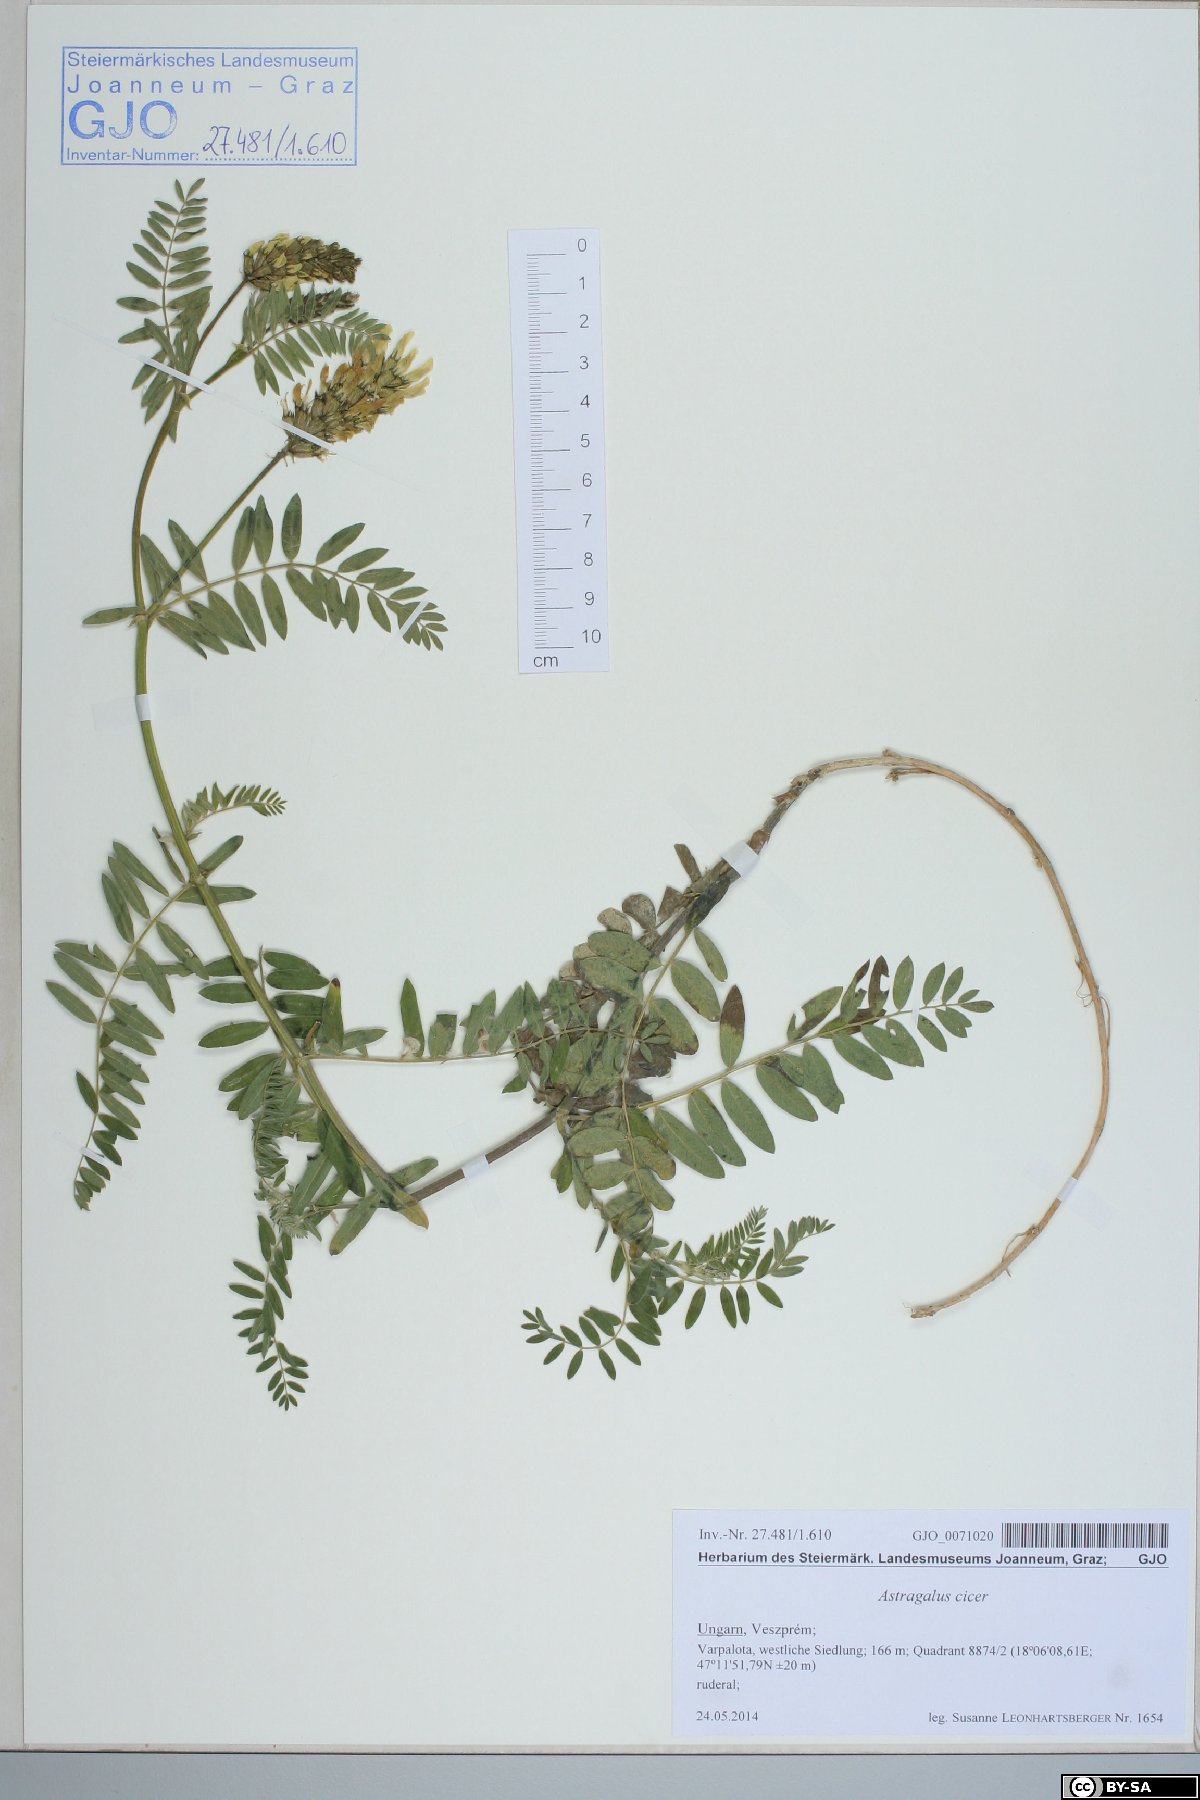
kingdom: Plantae
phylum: Tracheophyta
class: Magnoliopsida
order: Fabales
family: Fabaceae
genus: Astragalus
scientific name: Astragalus cicer
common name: Chick-pea milk-vetch
